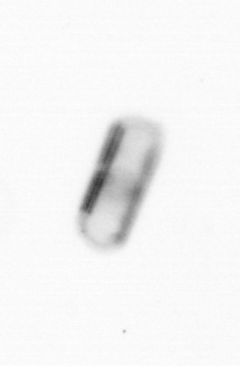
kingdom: Chromista
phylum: Ochrophyta
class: Bacillariophyceae
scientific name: Bacillariophyceae
